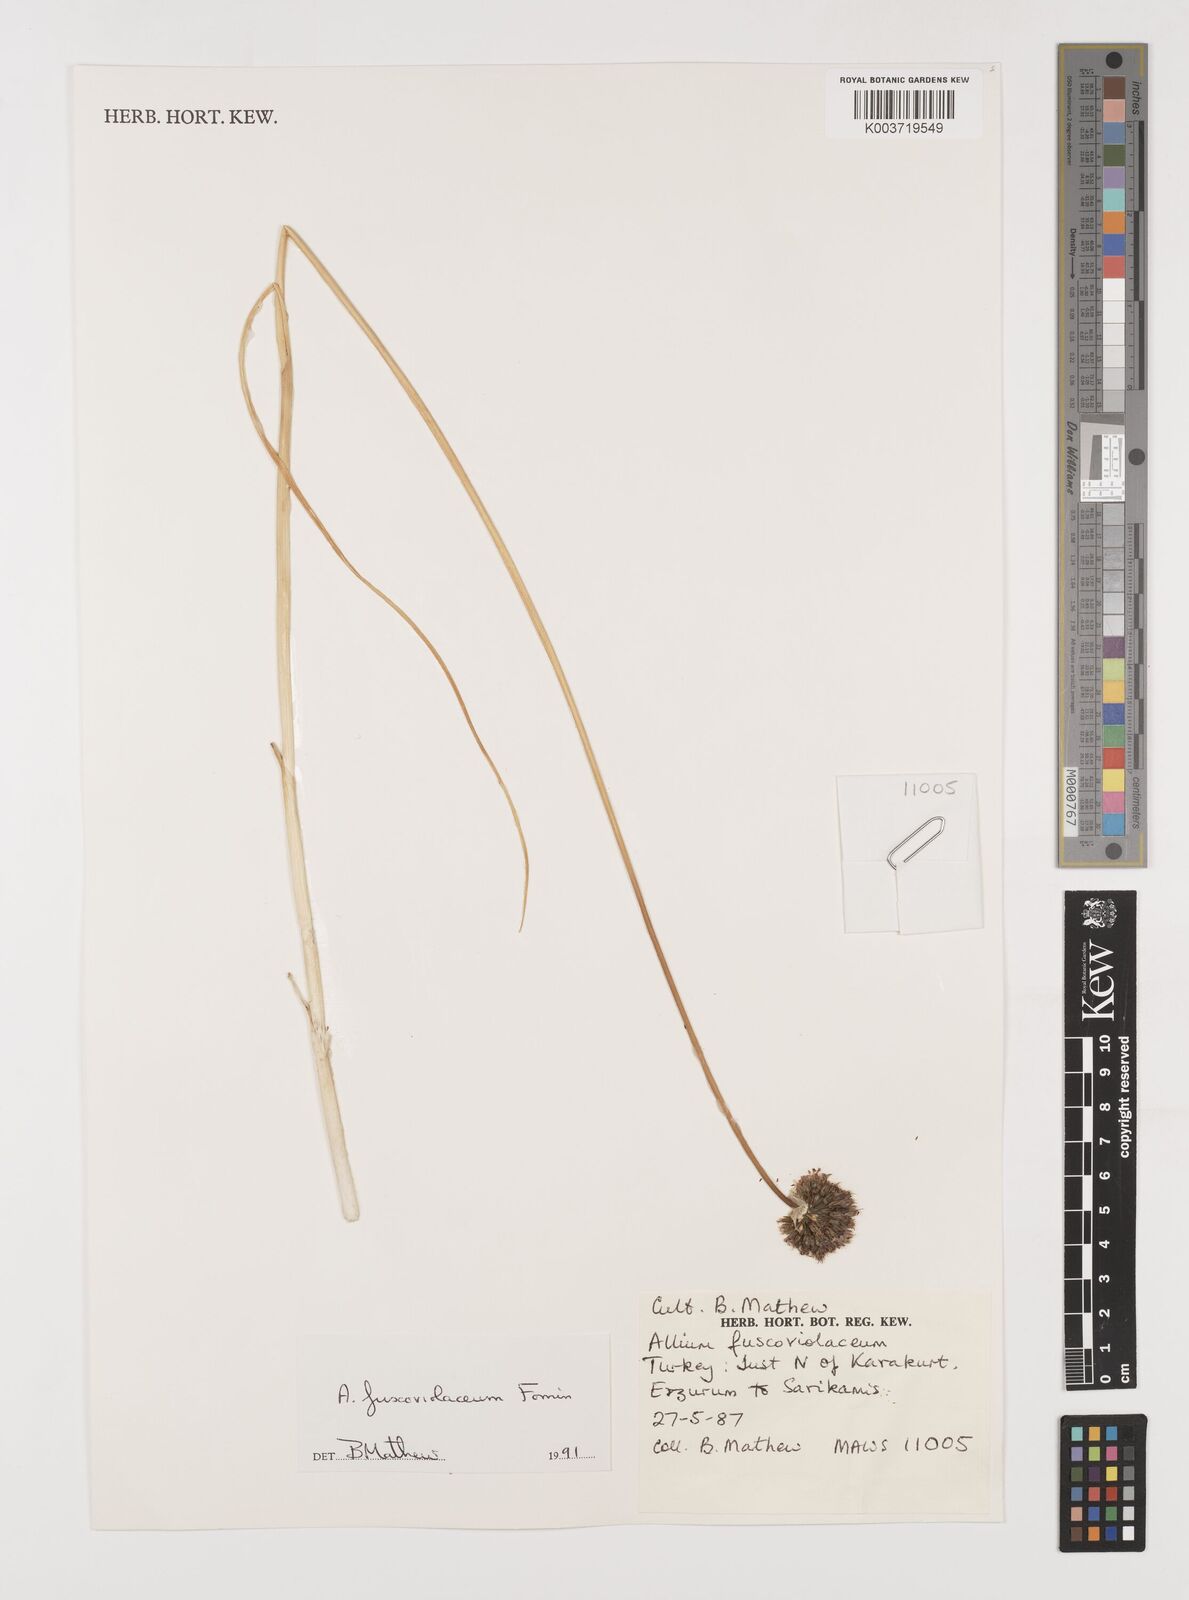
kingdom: Plantae
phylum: Tracheophyta
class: Liliopsida
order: Asparagales
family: Amaryllidaceae
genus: Allium
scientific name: Allium fuscoviolaceum
